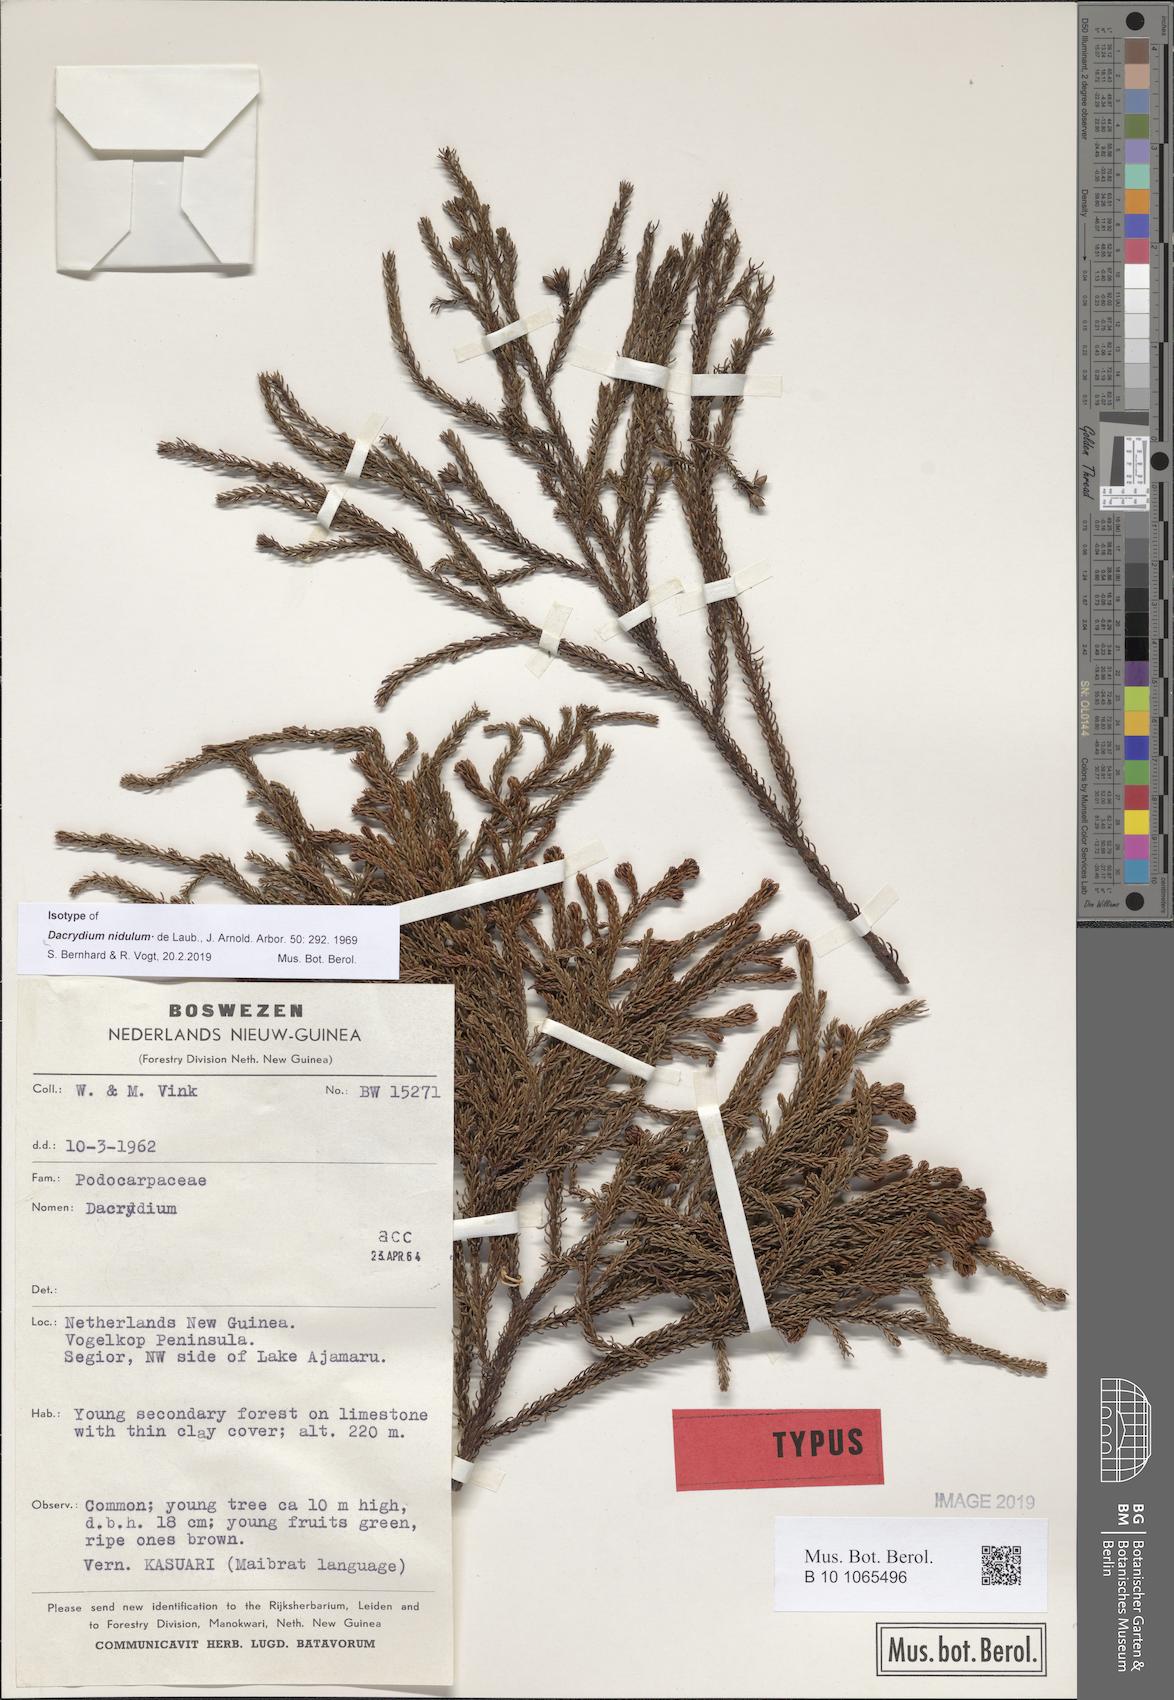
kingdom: Plantae
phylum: Tracheophyta
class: Pinopsida
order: Pinales
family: Podocarpaceae
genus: Dacrydium
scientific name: Dacrydium nidulum
